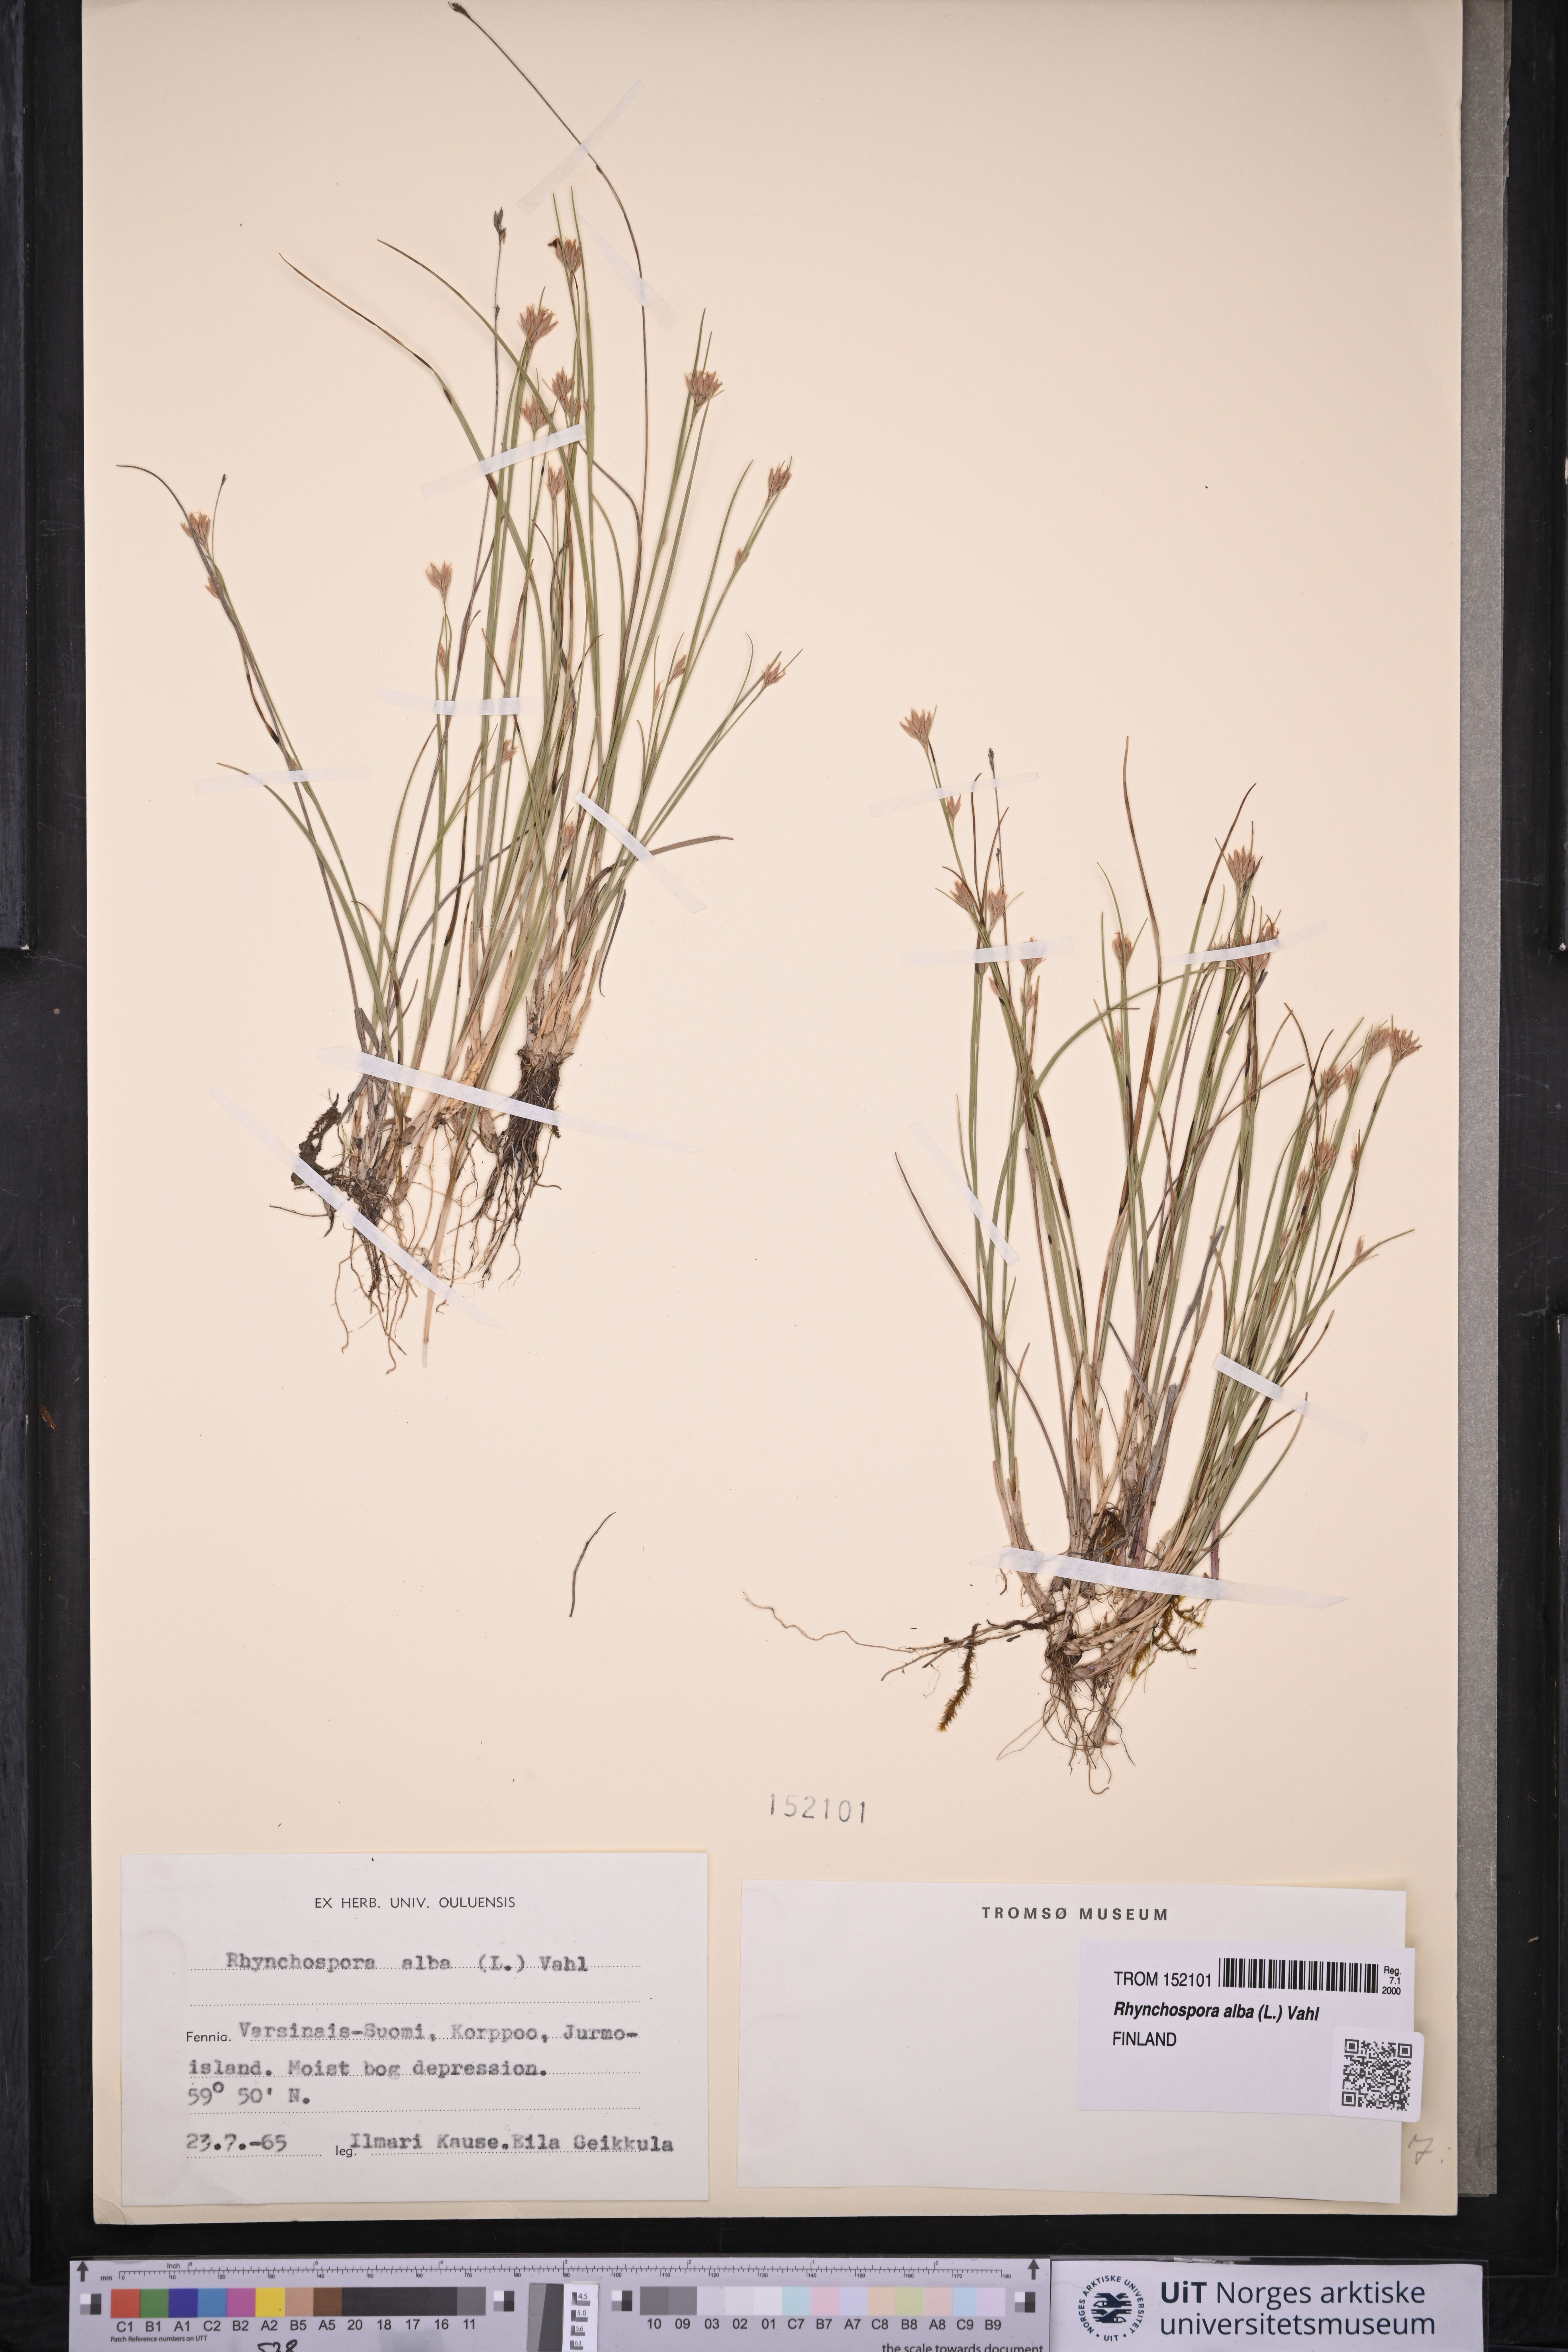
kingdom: Plantae
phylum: Tracheophyta
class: Liliopsida
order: Poales
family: Cyperaceae
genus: Rhynchospora
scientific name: Rhynchospora alba
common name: White beak-sedge
